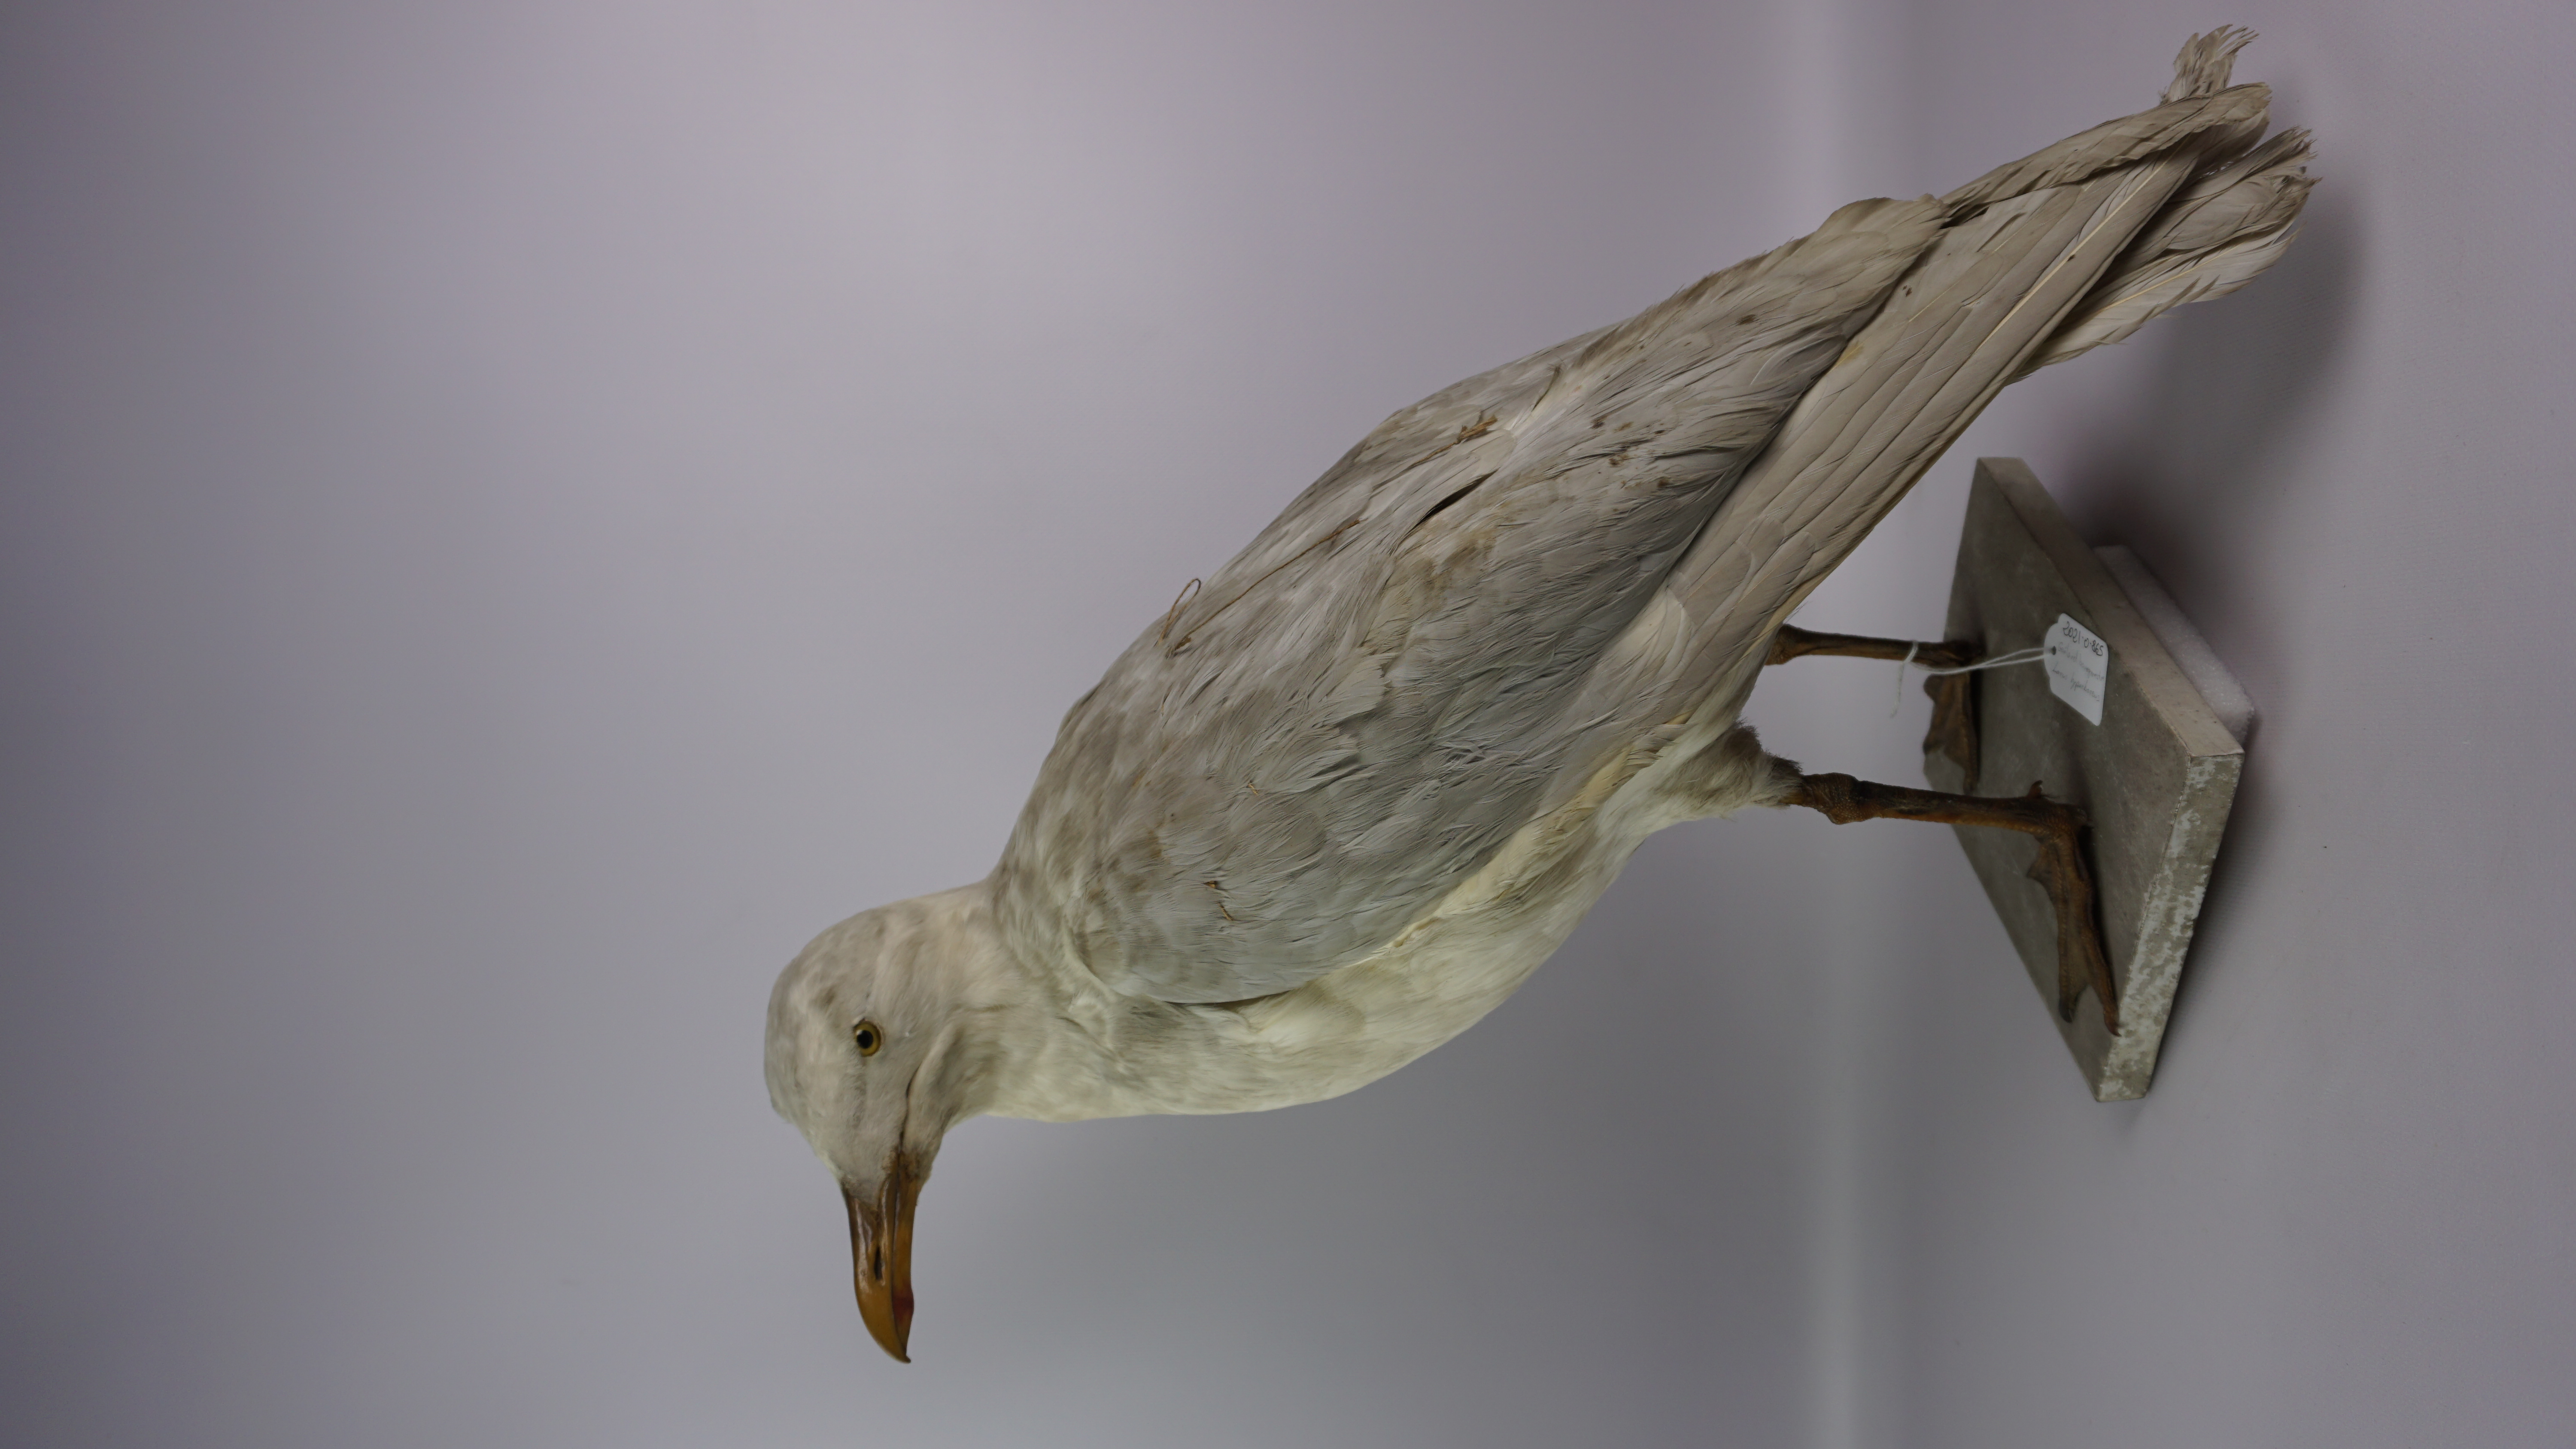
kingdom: Animalia
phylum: Chordata
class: Aves
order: Charadriiformes
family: Laridae
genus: Larus
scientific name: Larus hyperboreus
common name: Glaucous gull
